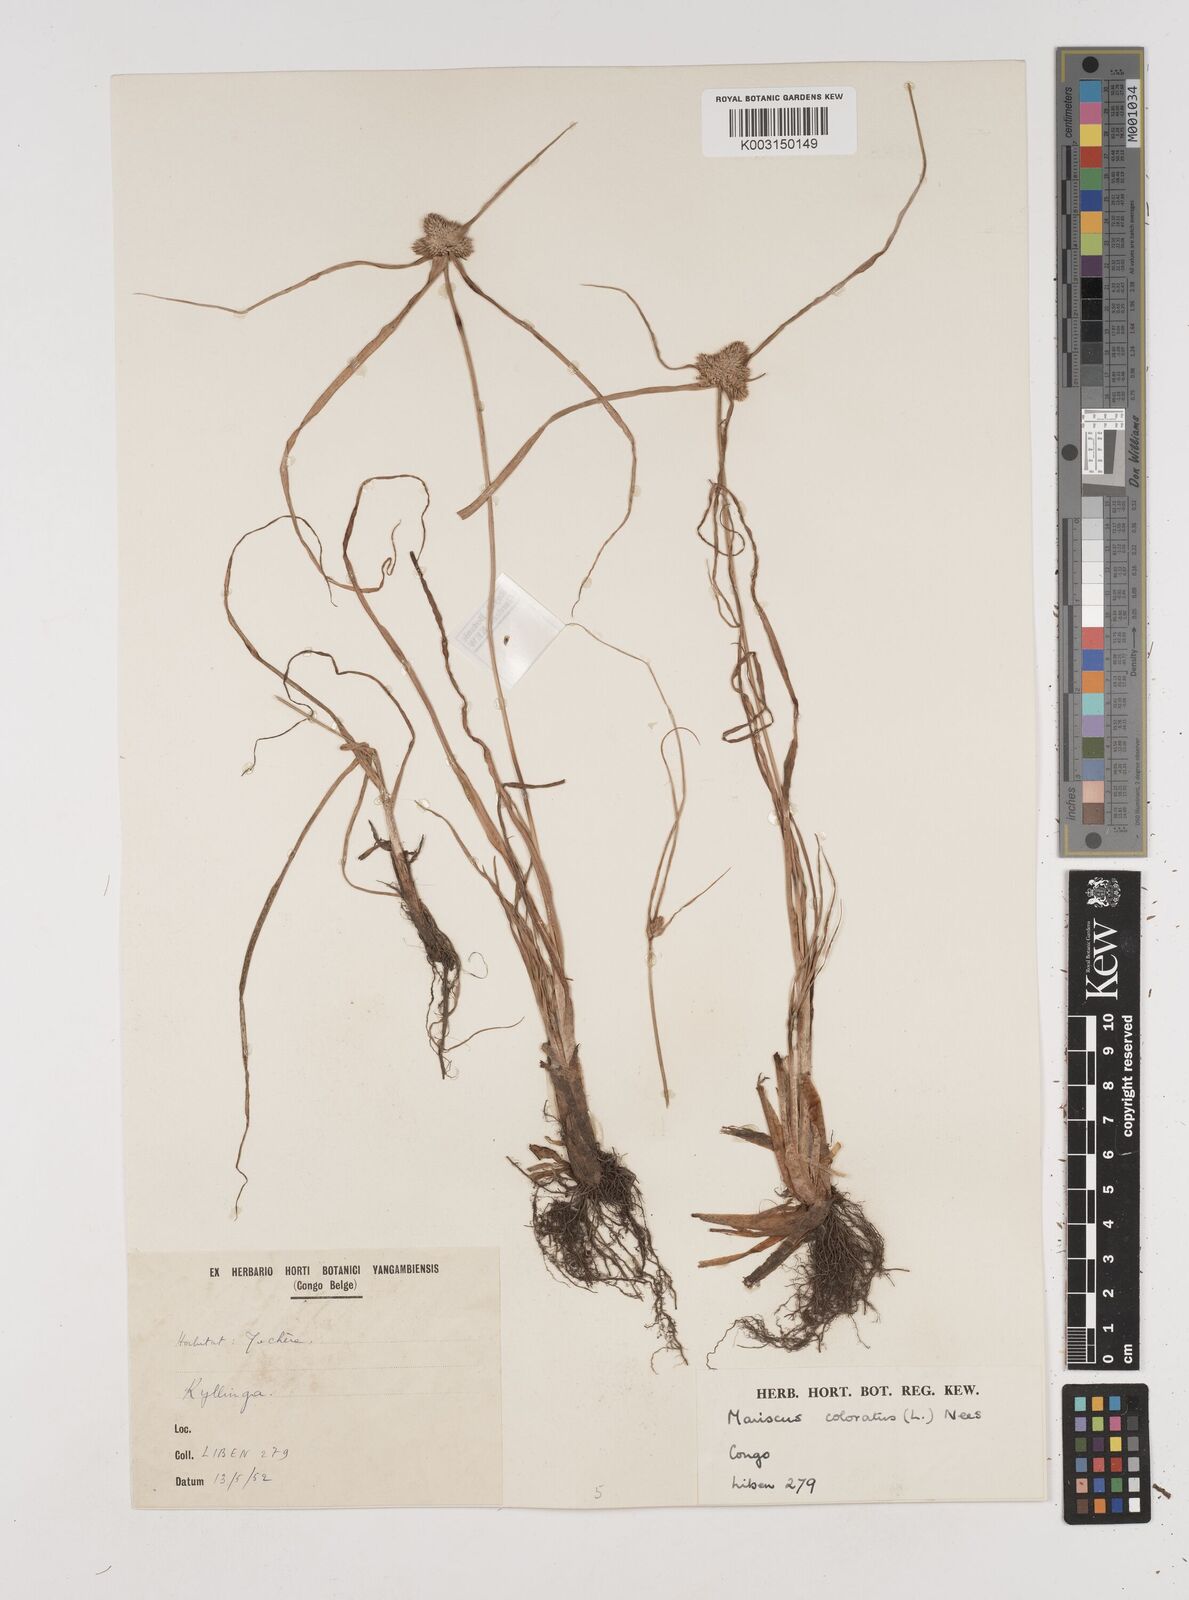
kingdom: Plantae
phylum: Tracheophyta
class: Liliopsida
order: Poales
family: Cyperaceae
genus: Cyperus
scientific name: Cyperus dubius
